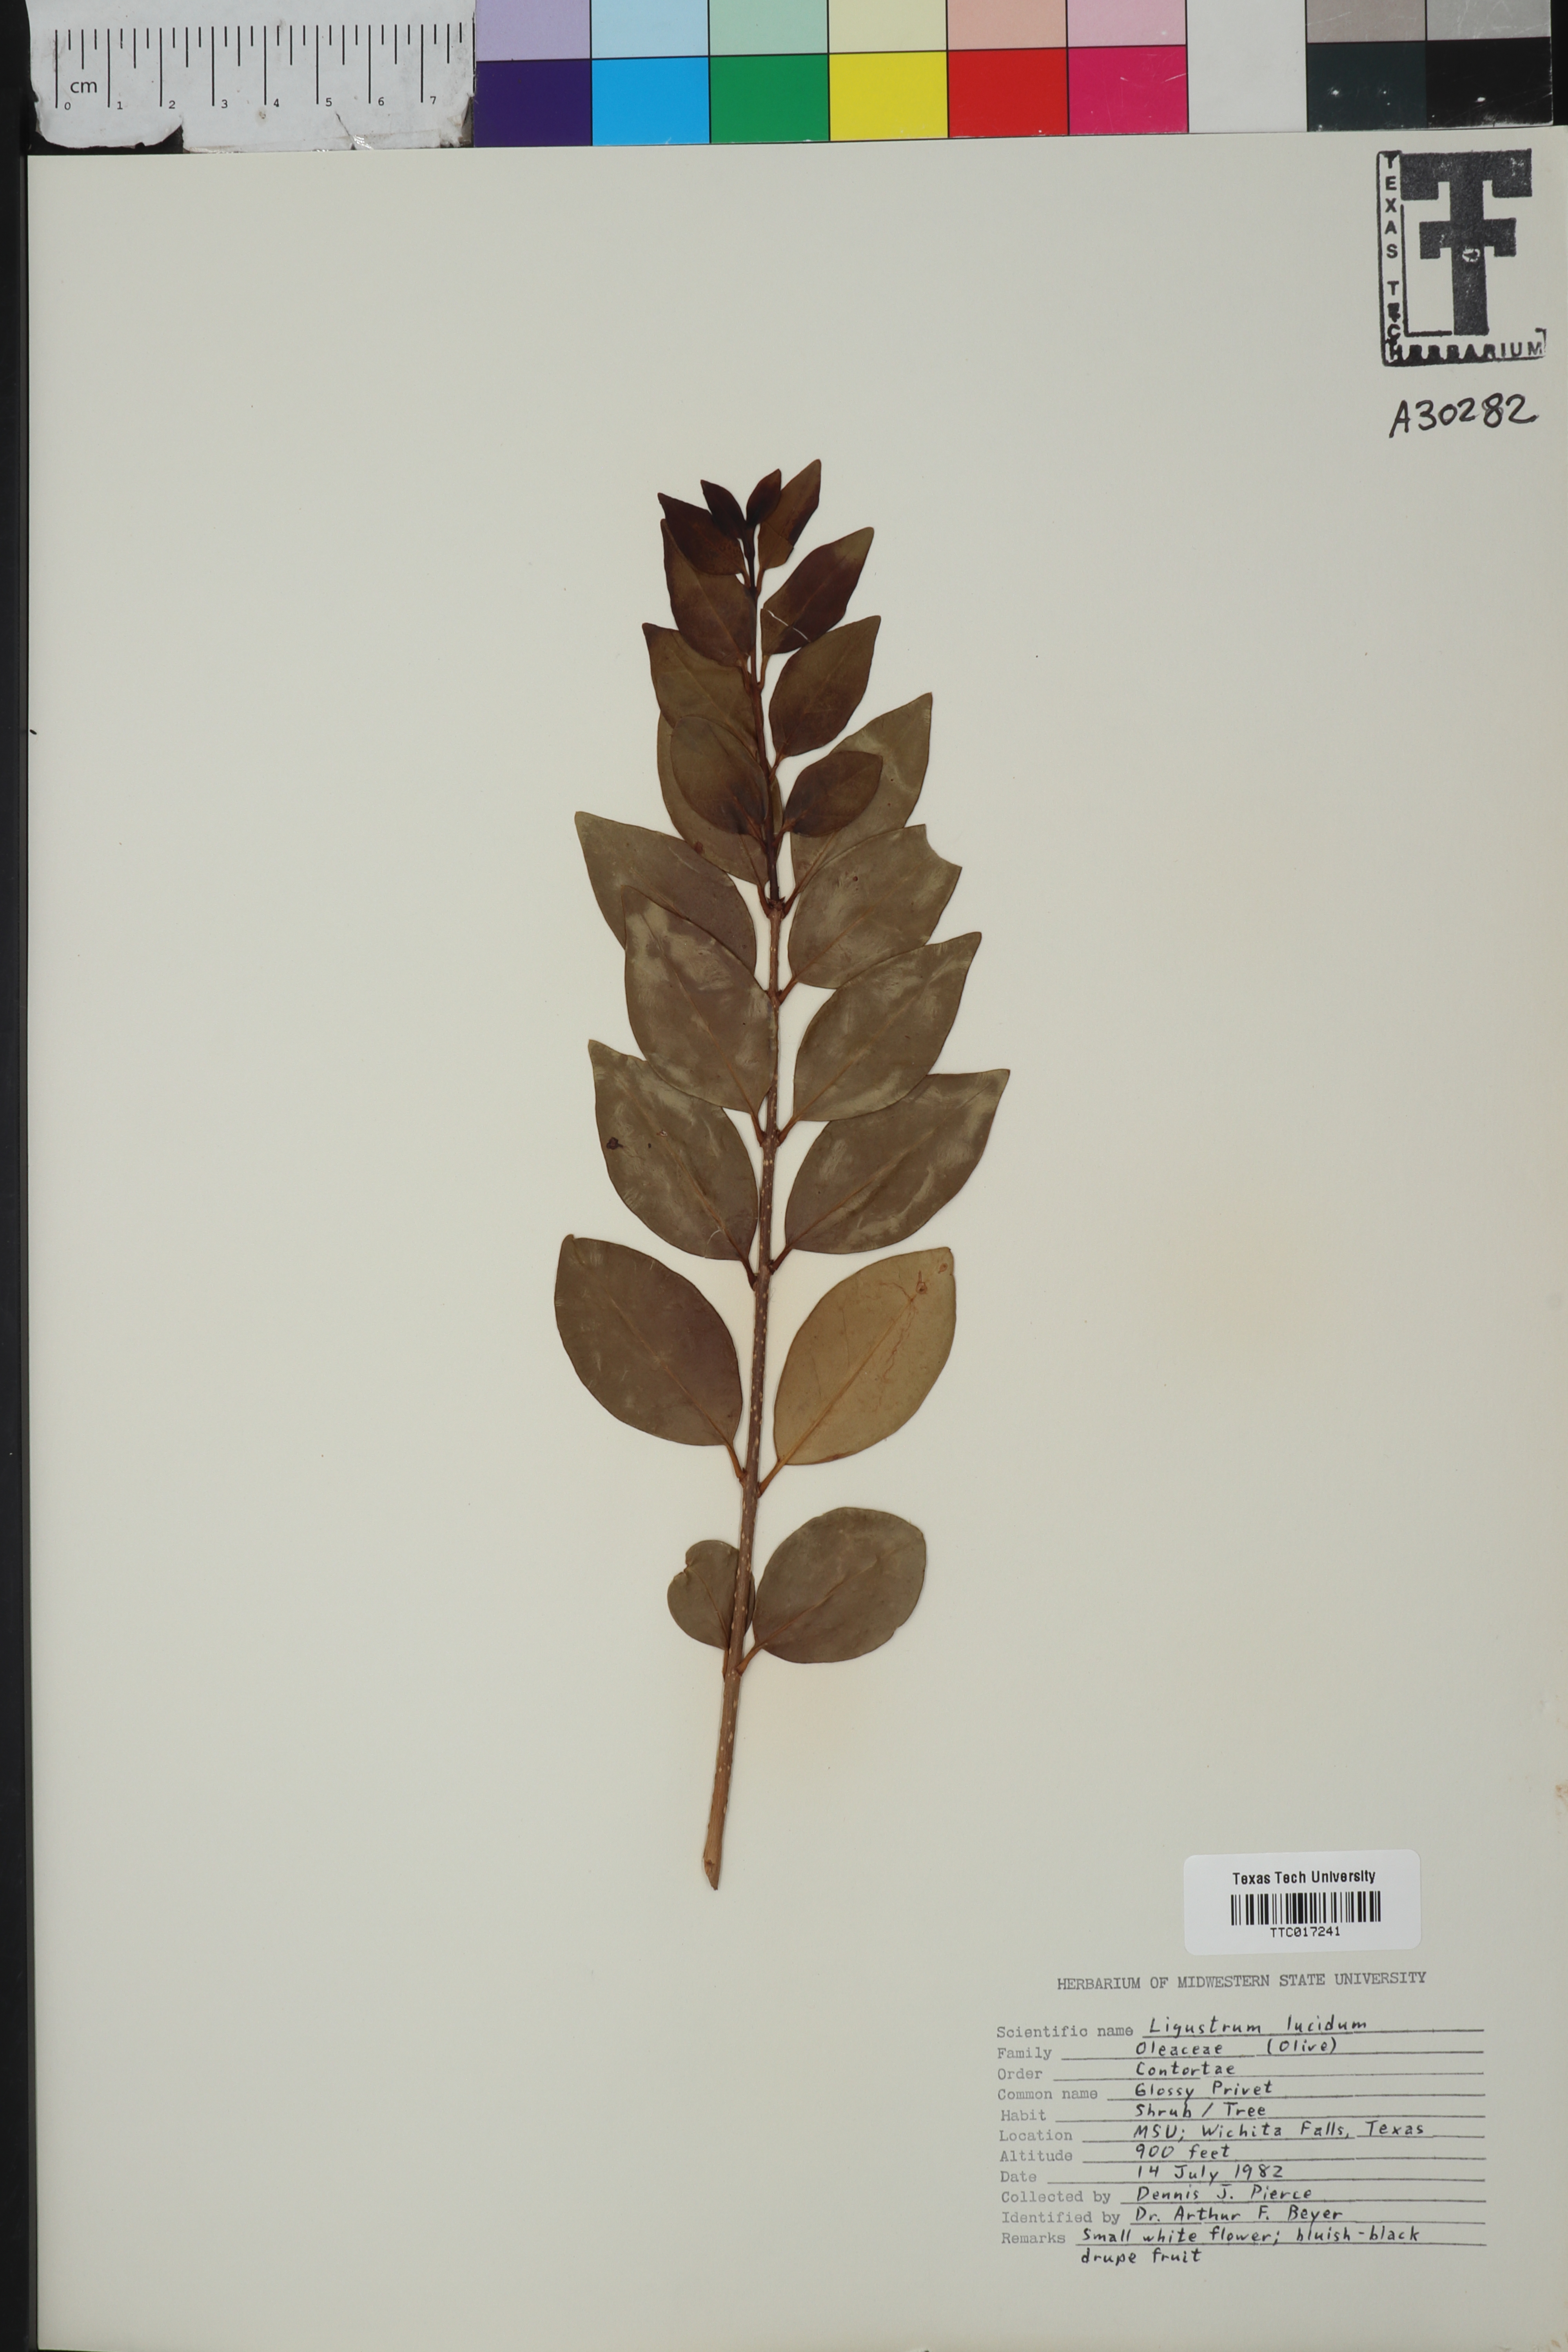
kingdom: Plantae
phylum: Tracheophyta
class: Magnoliopsida
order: Lamiales
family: Oleaceae
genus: Ligustrum
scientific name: Ligustrum
